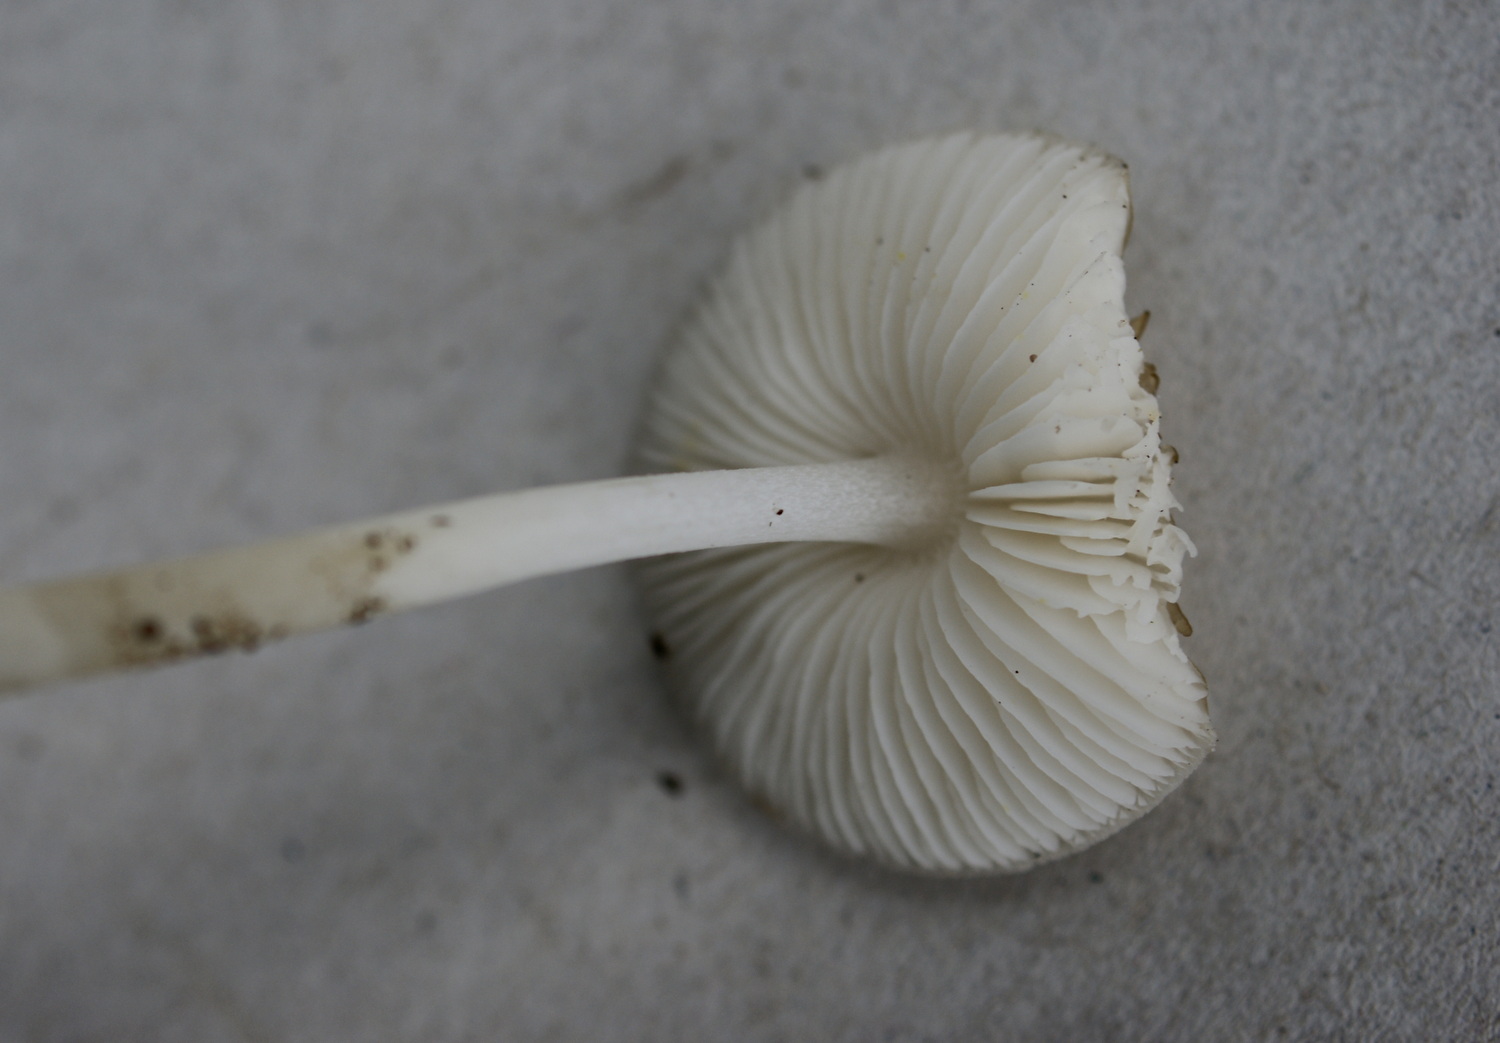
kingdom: Fungi
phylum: Basidiomycota
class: Agaricomycetes
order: Agaricales
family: Porotheleaceae
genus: Hydropodia
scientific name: Hydropodia subalpina
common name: vår-fnugfod
